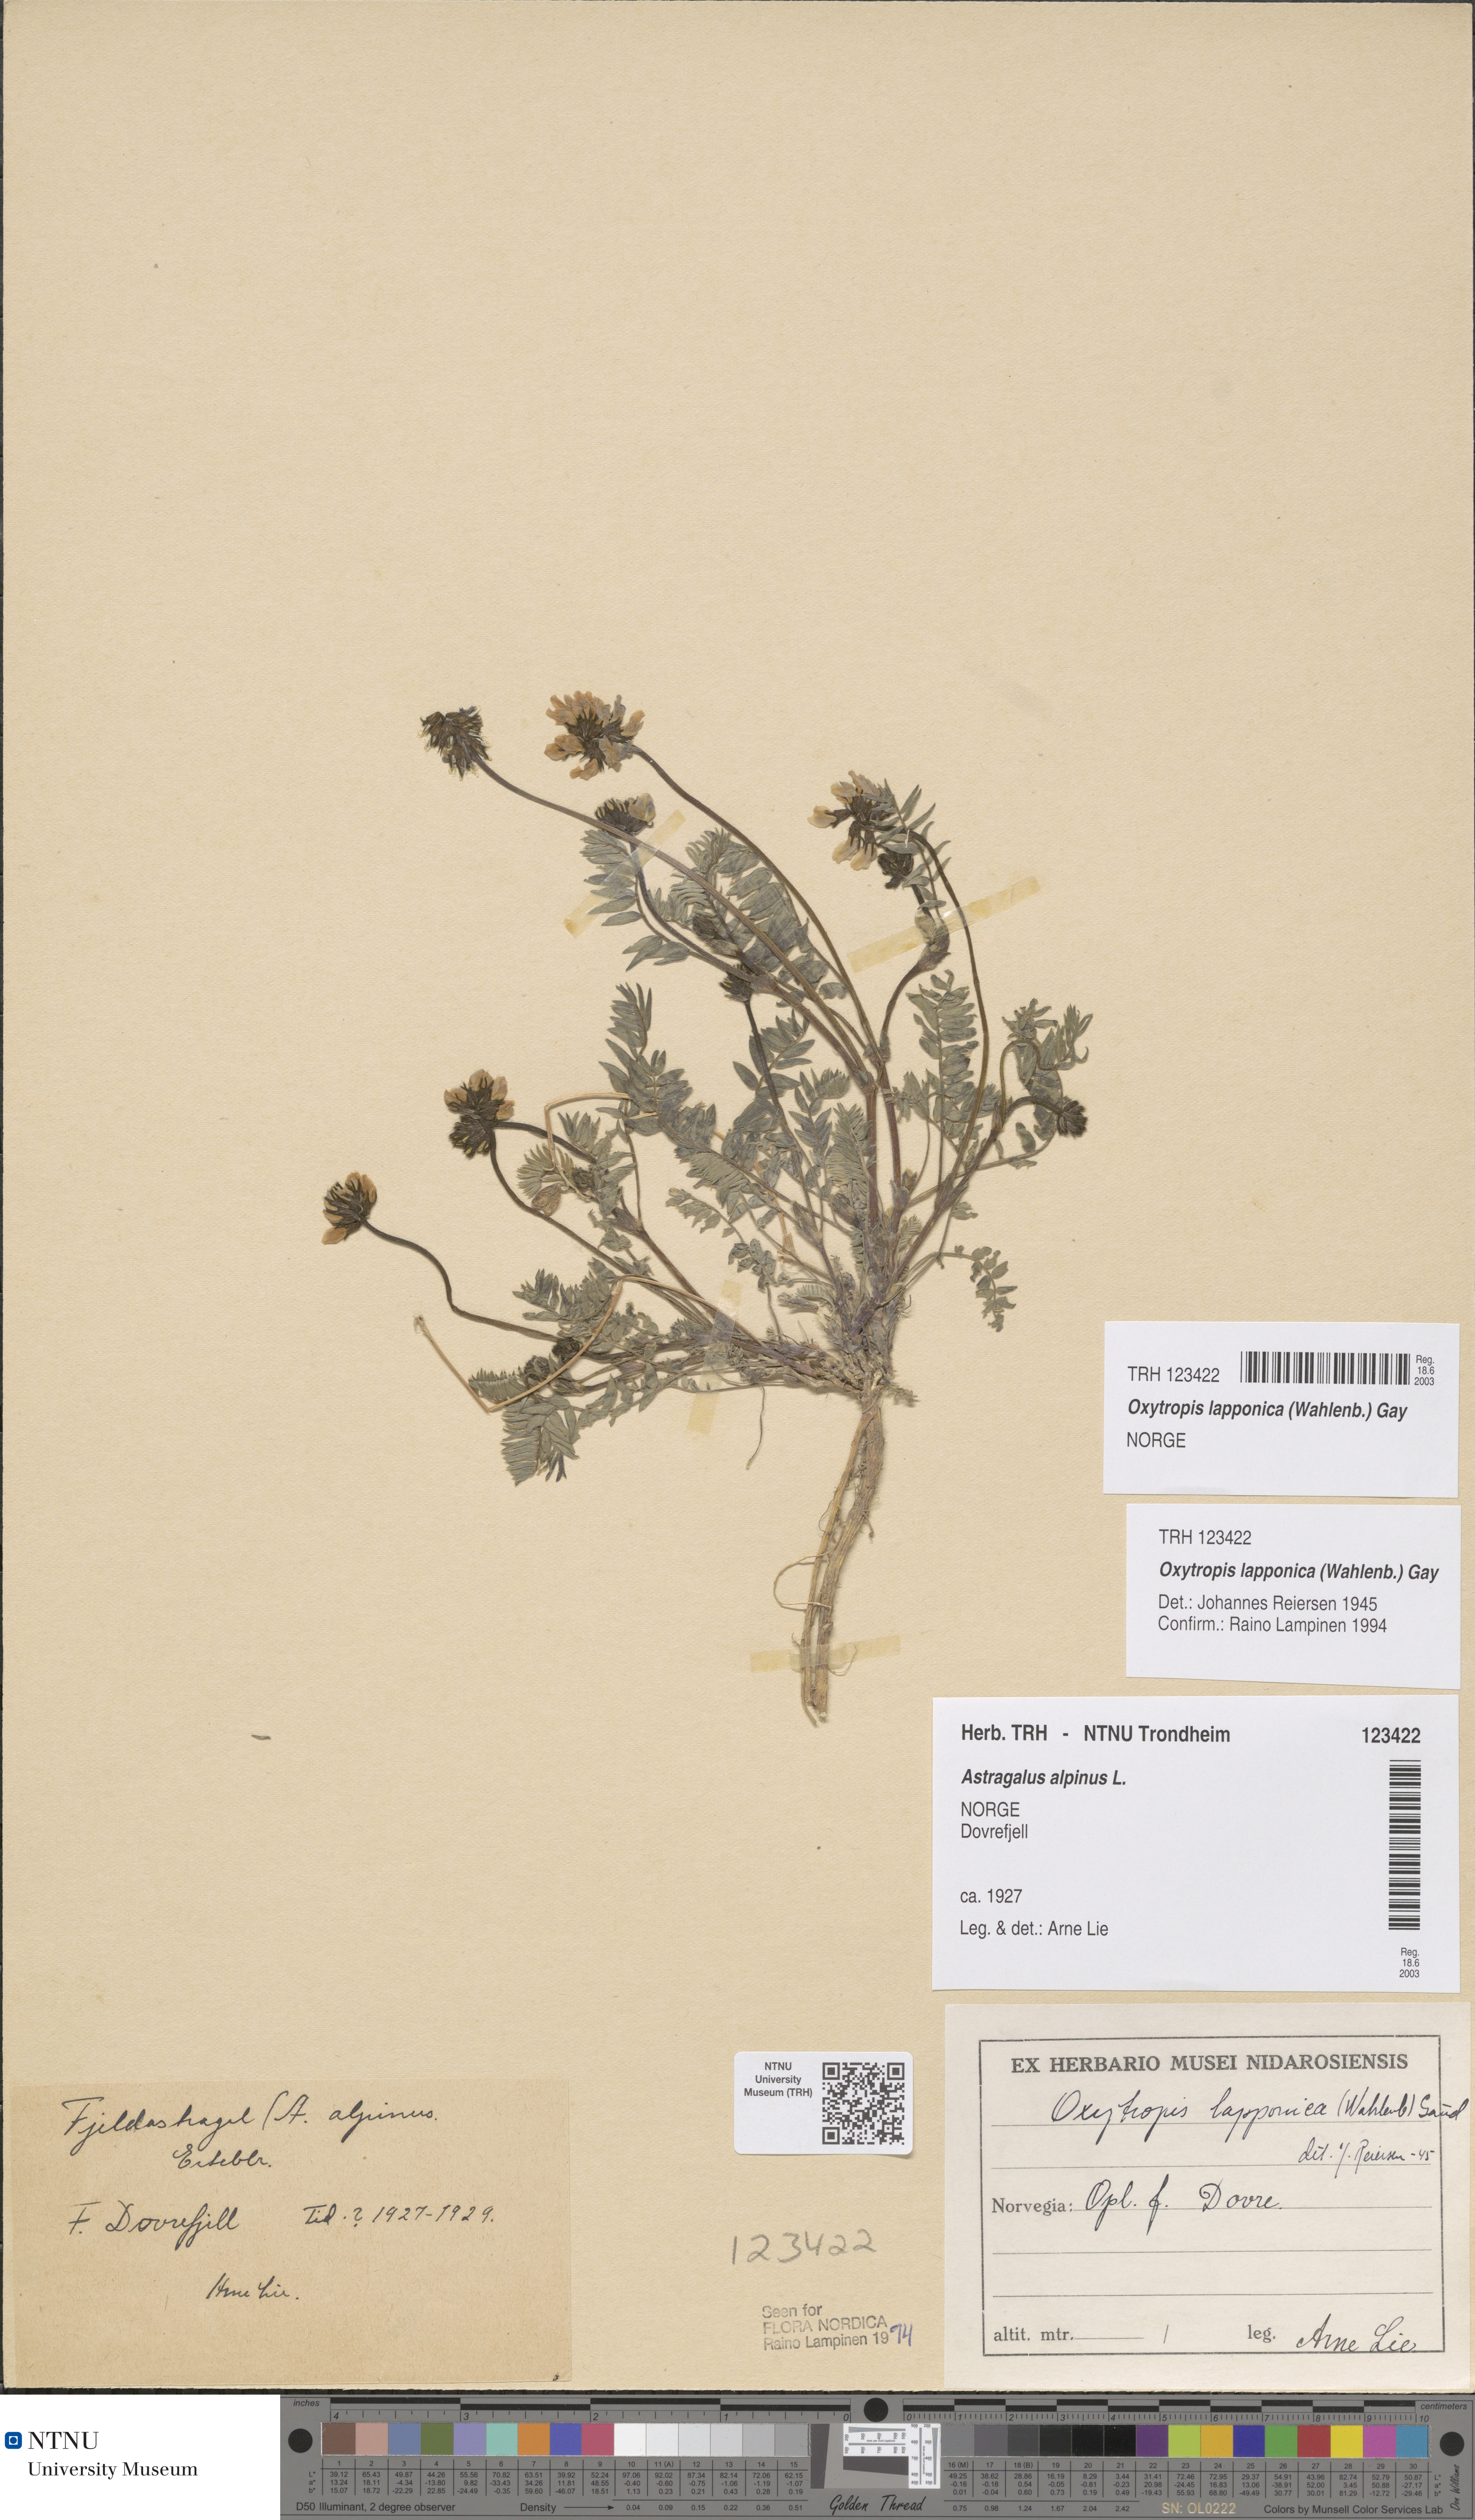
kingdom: Plantae
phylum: Tracheophyta
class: Magnoliopsida
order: Fabales
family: Fabaceae
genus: Oxytropis
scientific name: Oxytropis lapponica
